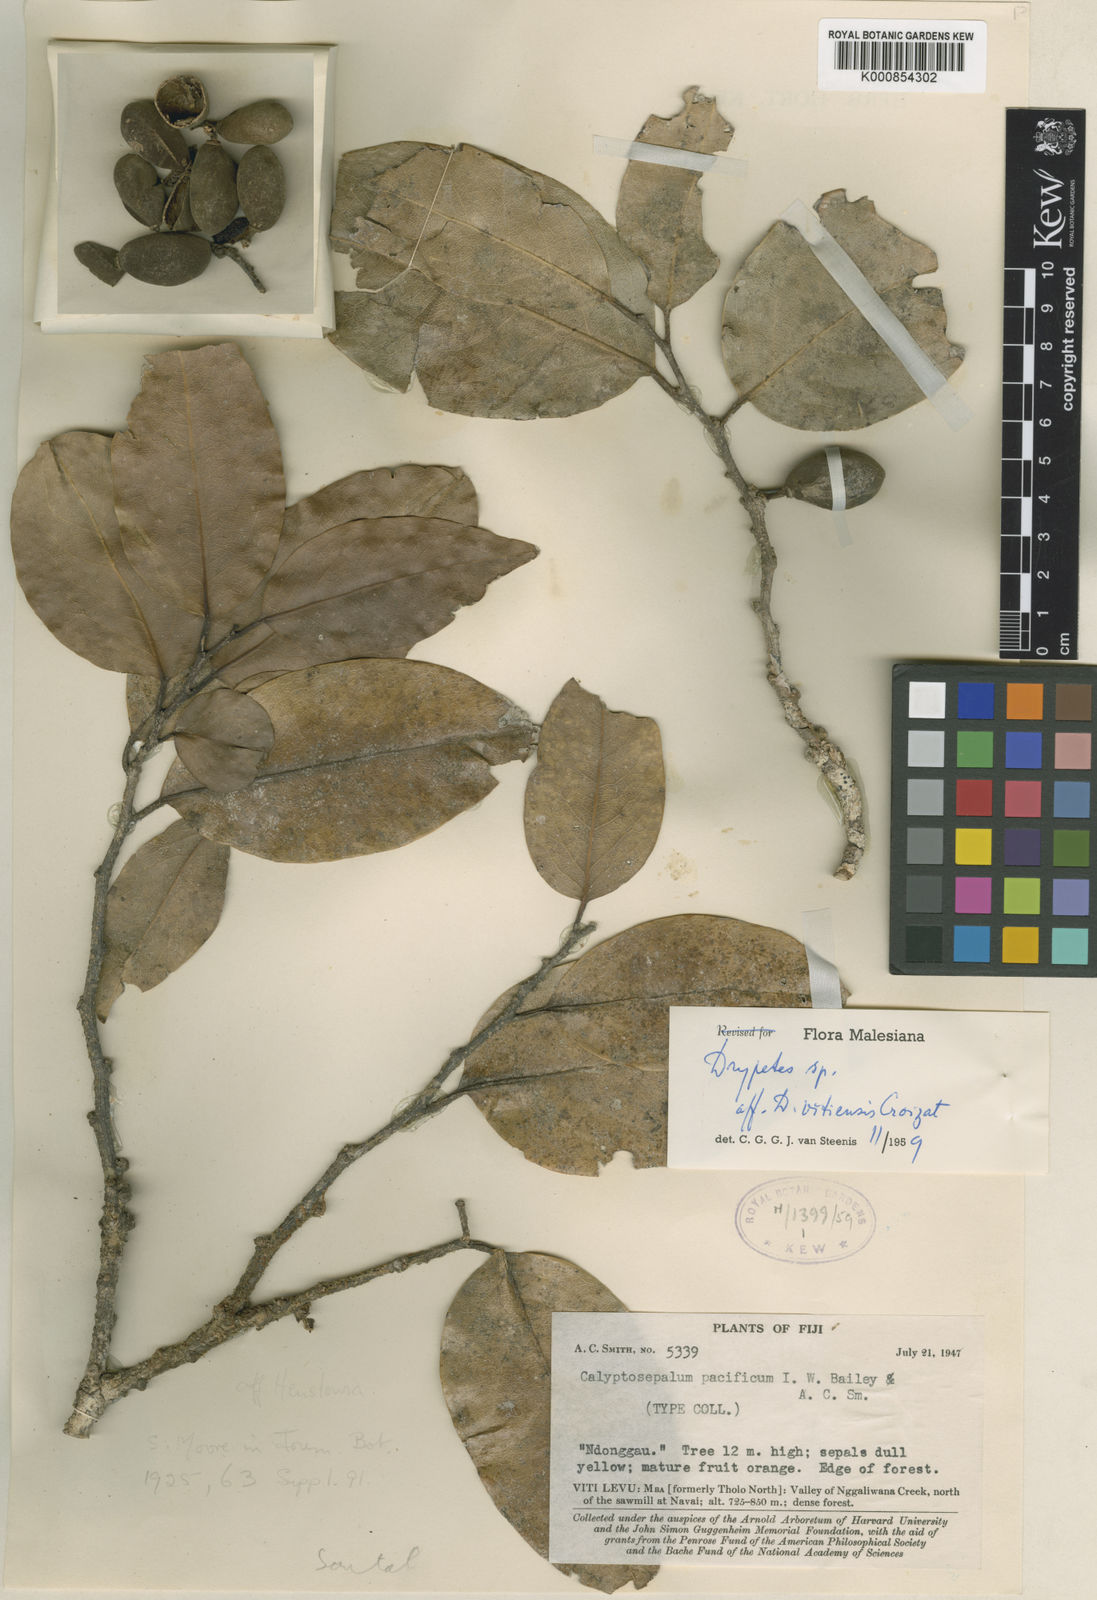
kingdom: Plantae
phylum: Tracheophyta
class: Magnoliopsida
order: Malpighiales
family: Putranjivaceae
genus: Drypetes
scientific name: Drypetes pacifica
